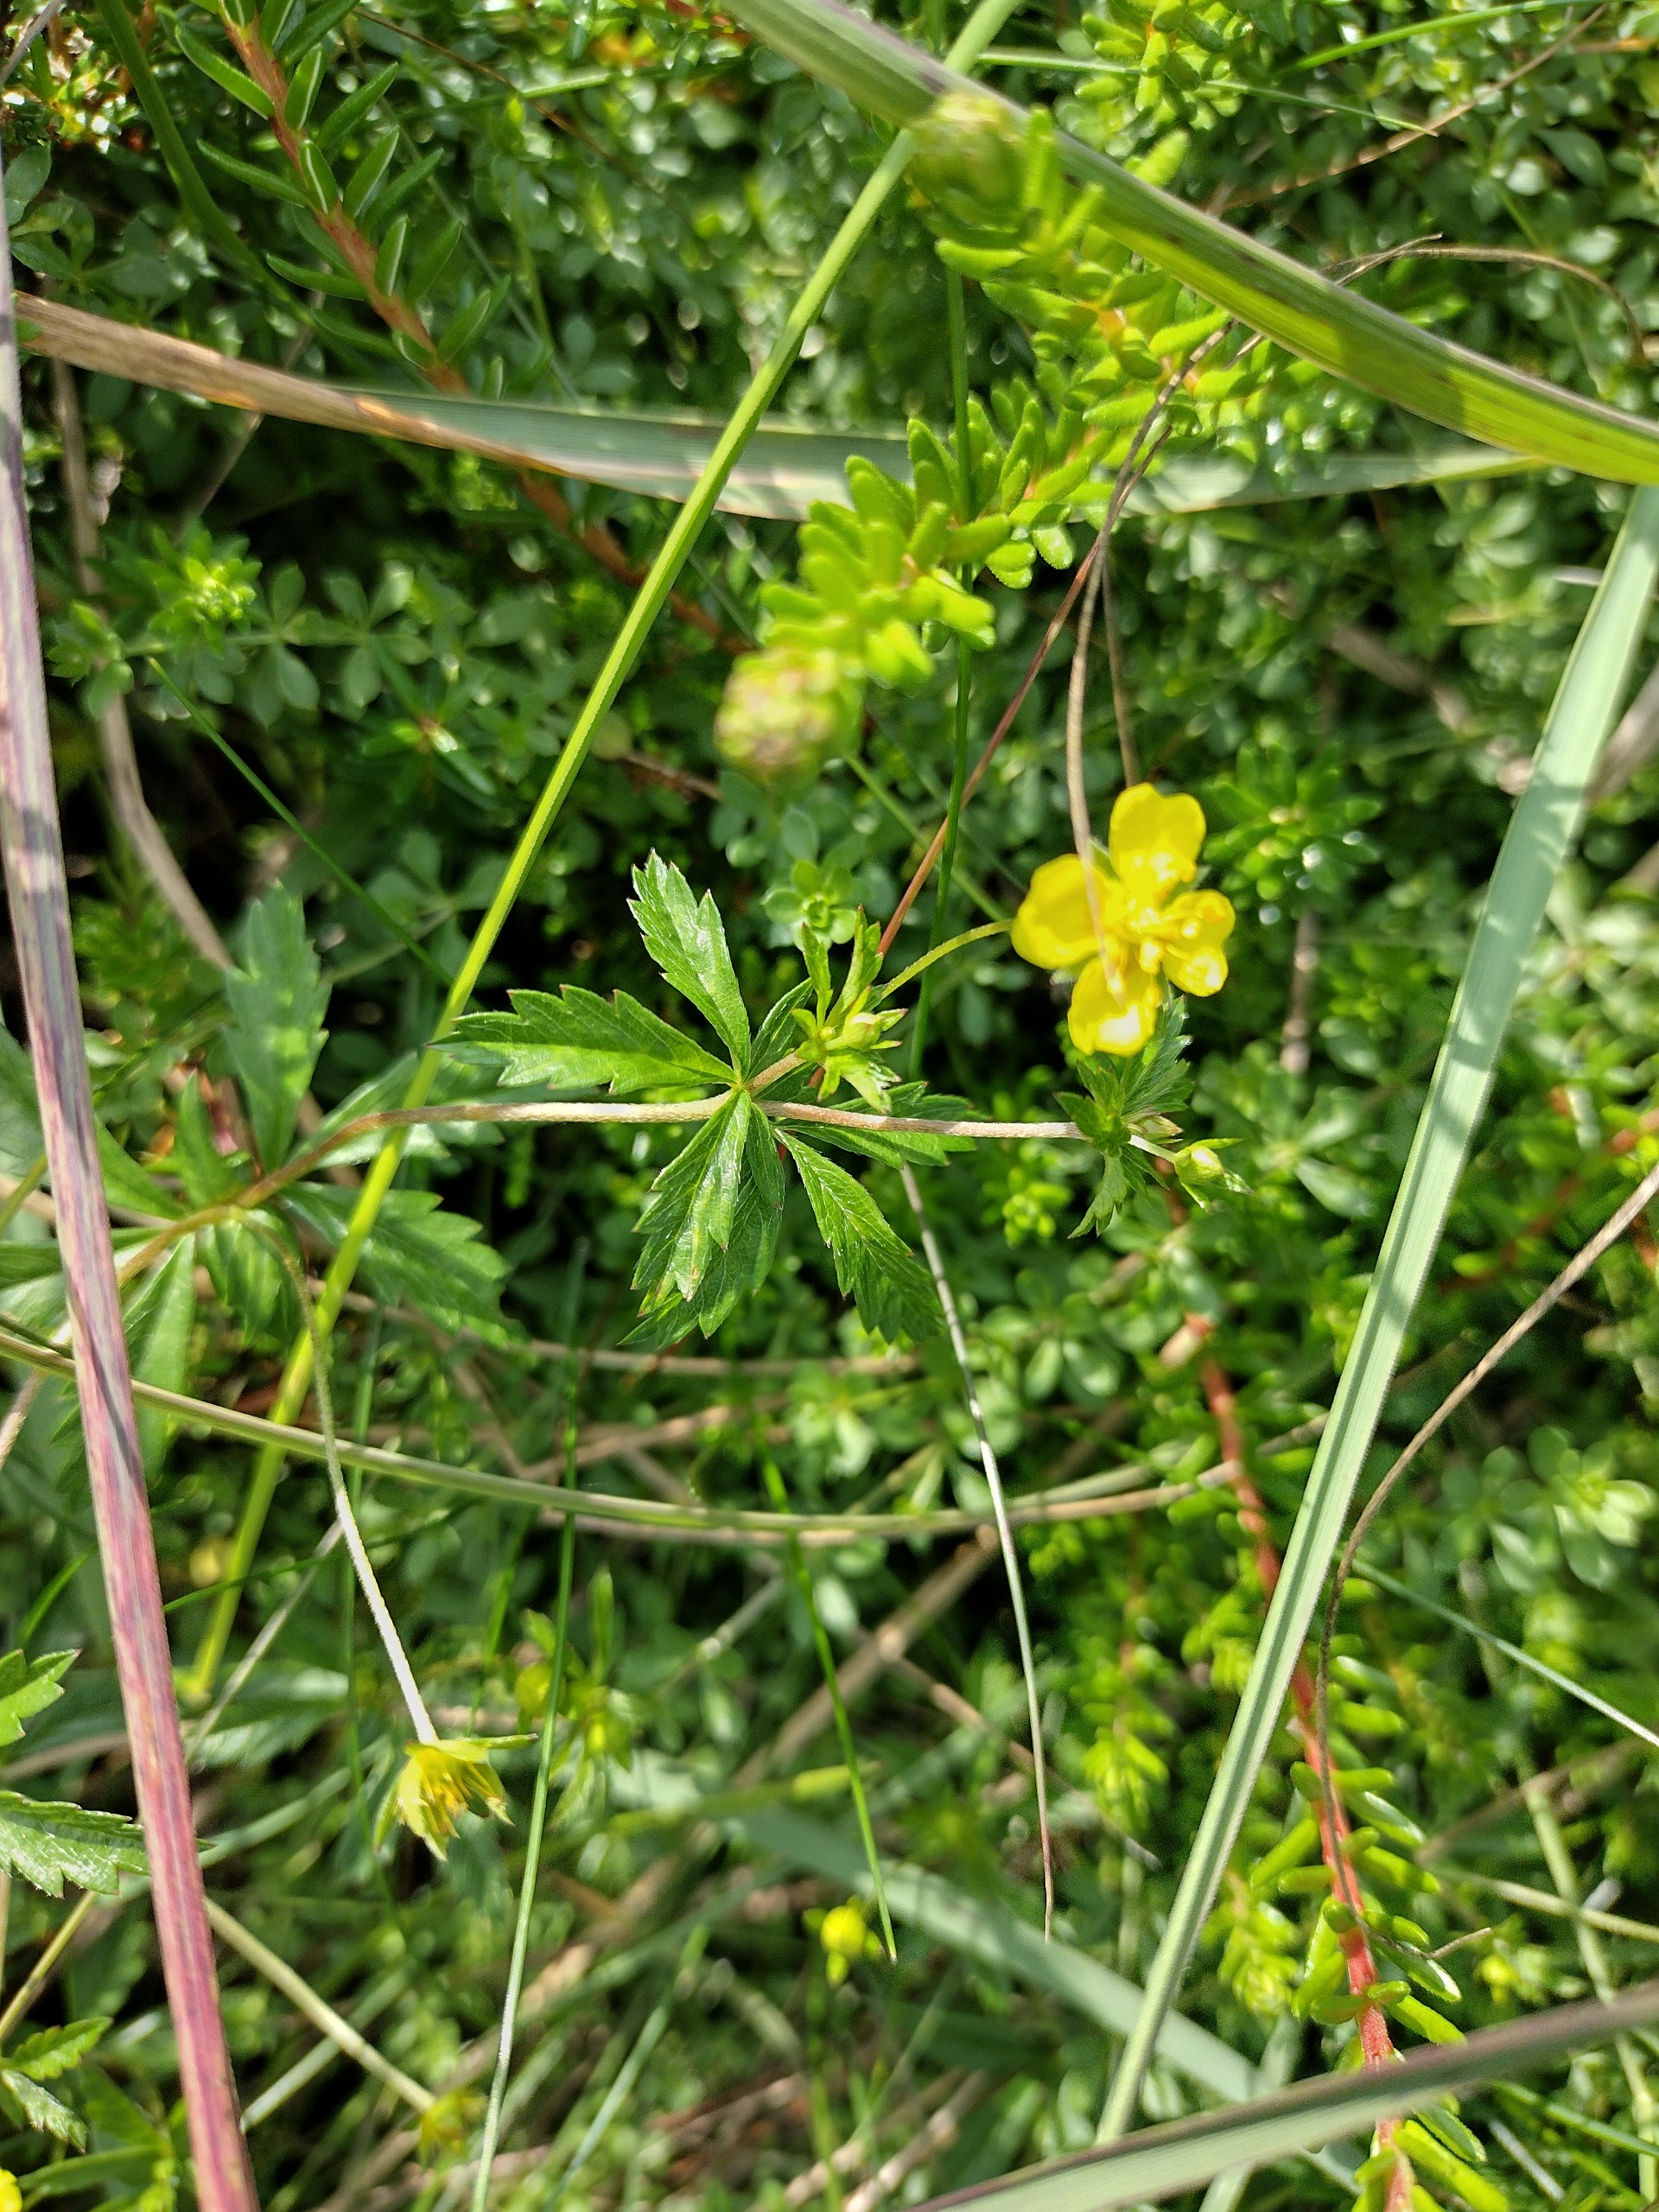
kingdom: Plantae
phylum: Tracheophyta
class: Magnoliopsida
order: Rosales
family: Rosaceae
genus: Potentilla
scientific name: Potentilla erecta
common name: Tormentil
